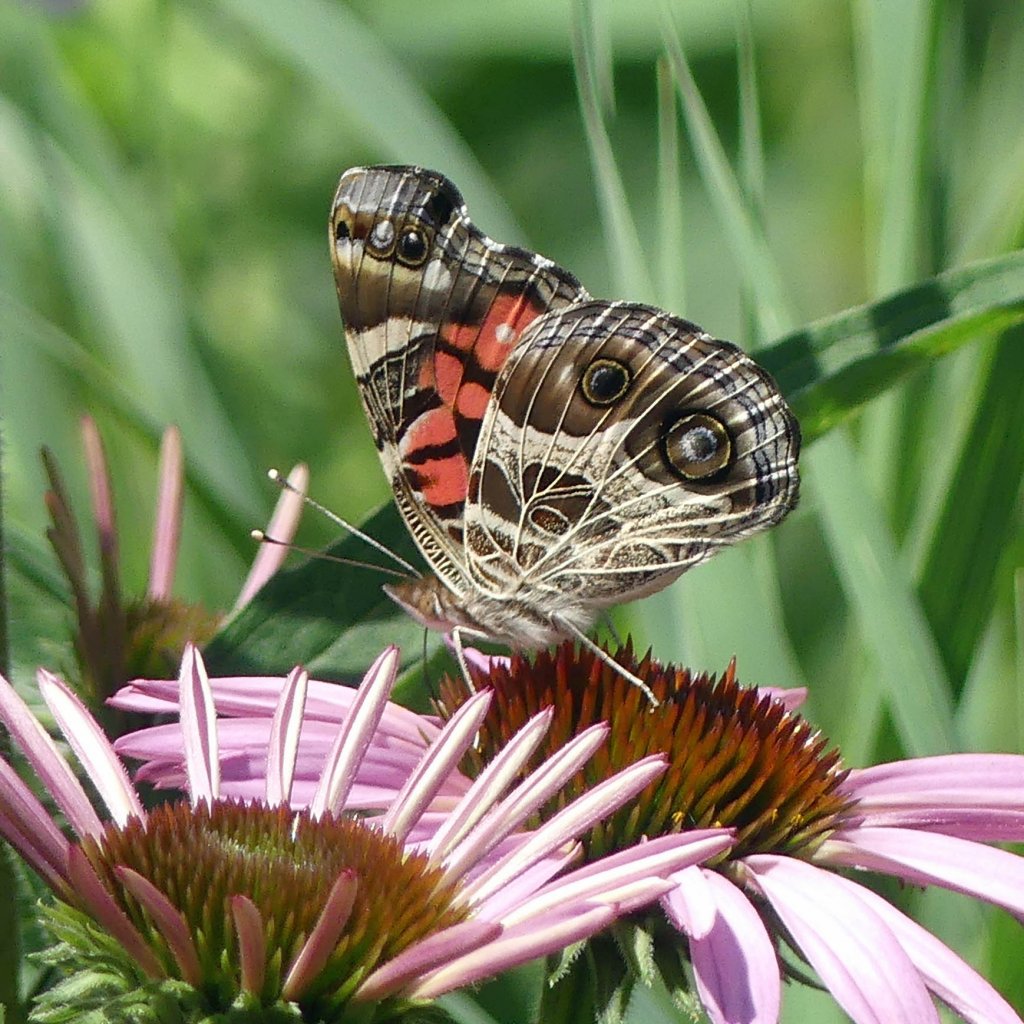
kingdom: Animalia
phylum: Arthropoda
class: Insecta
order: Lepidoptera
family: Nymphalidae
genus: Vanessa
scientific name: Vanessa virginiensis
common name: American Lady
